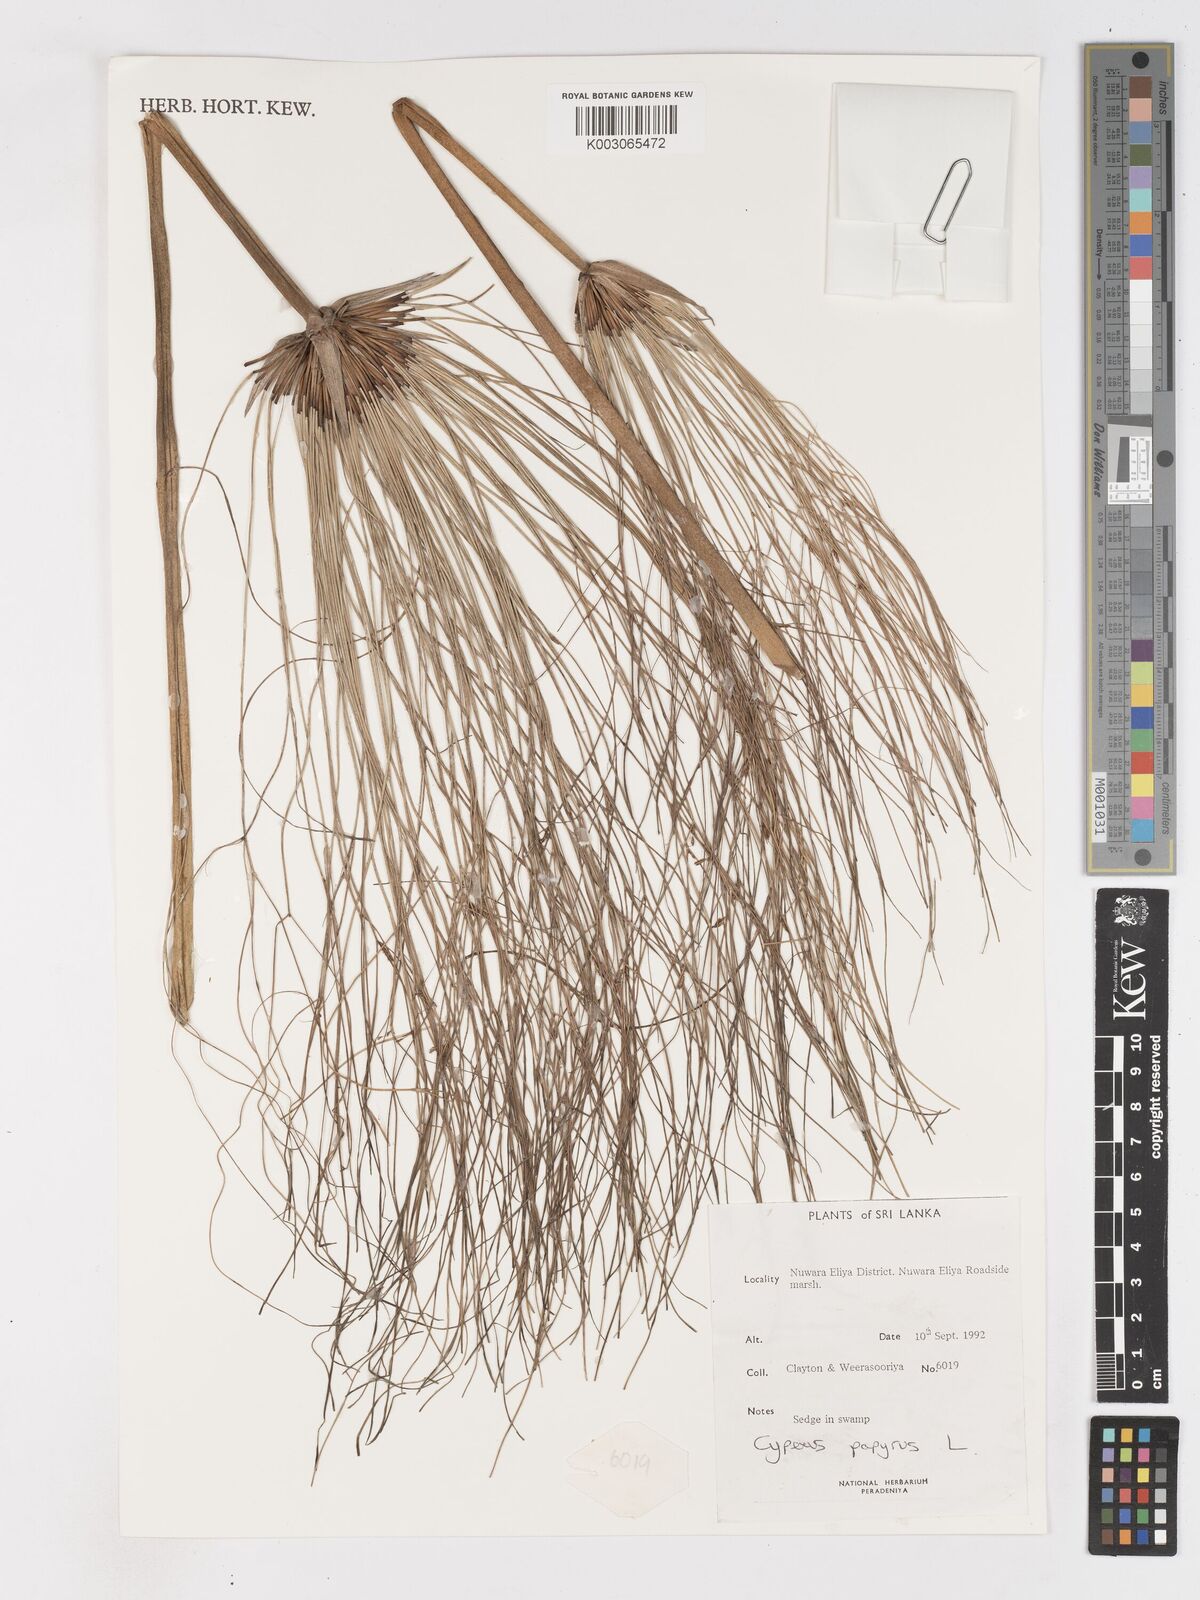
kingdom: Plantae
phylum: Tracheophyta
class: Liliopsida
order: Poales
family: Cyperaceae
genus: Cyperus
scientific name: Cyperus papyrus
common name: Papyrus
